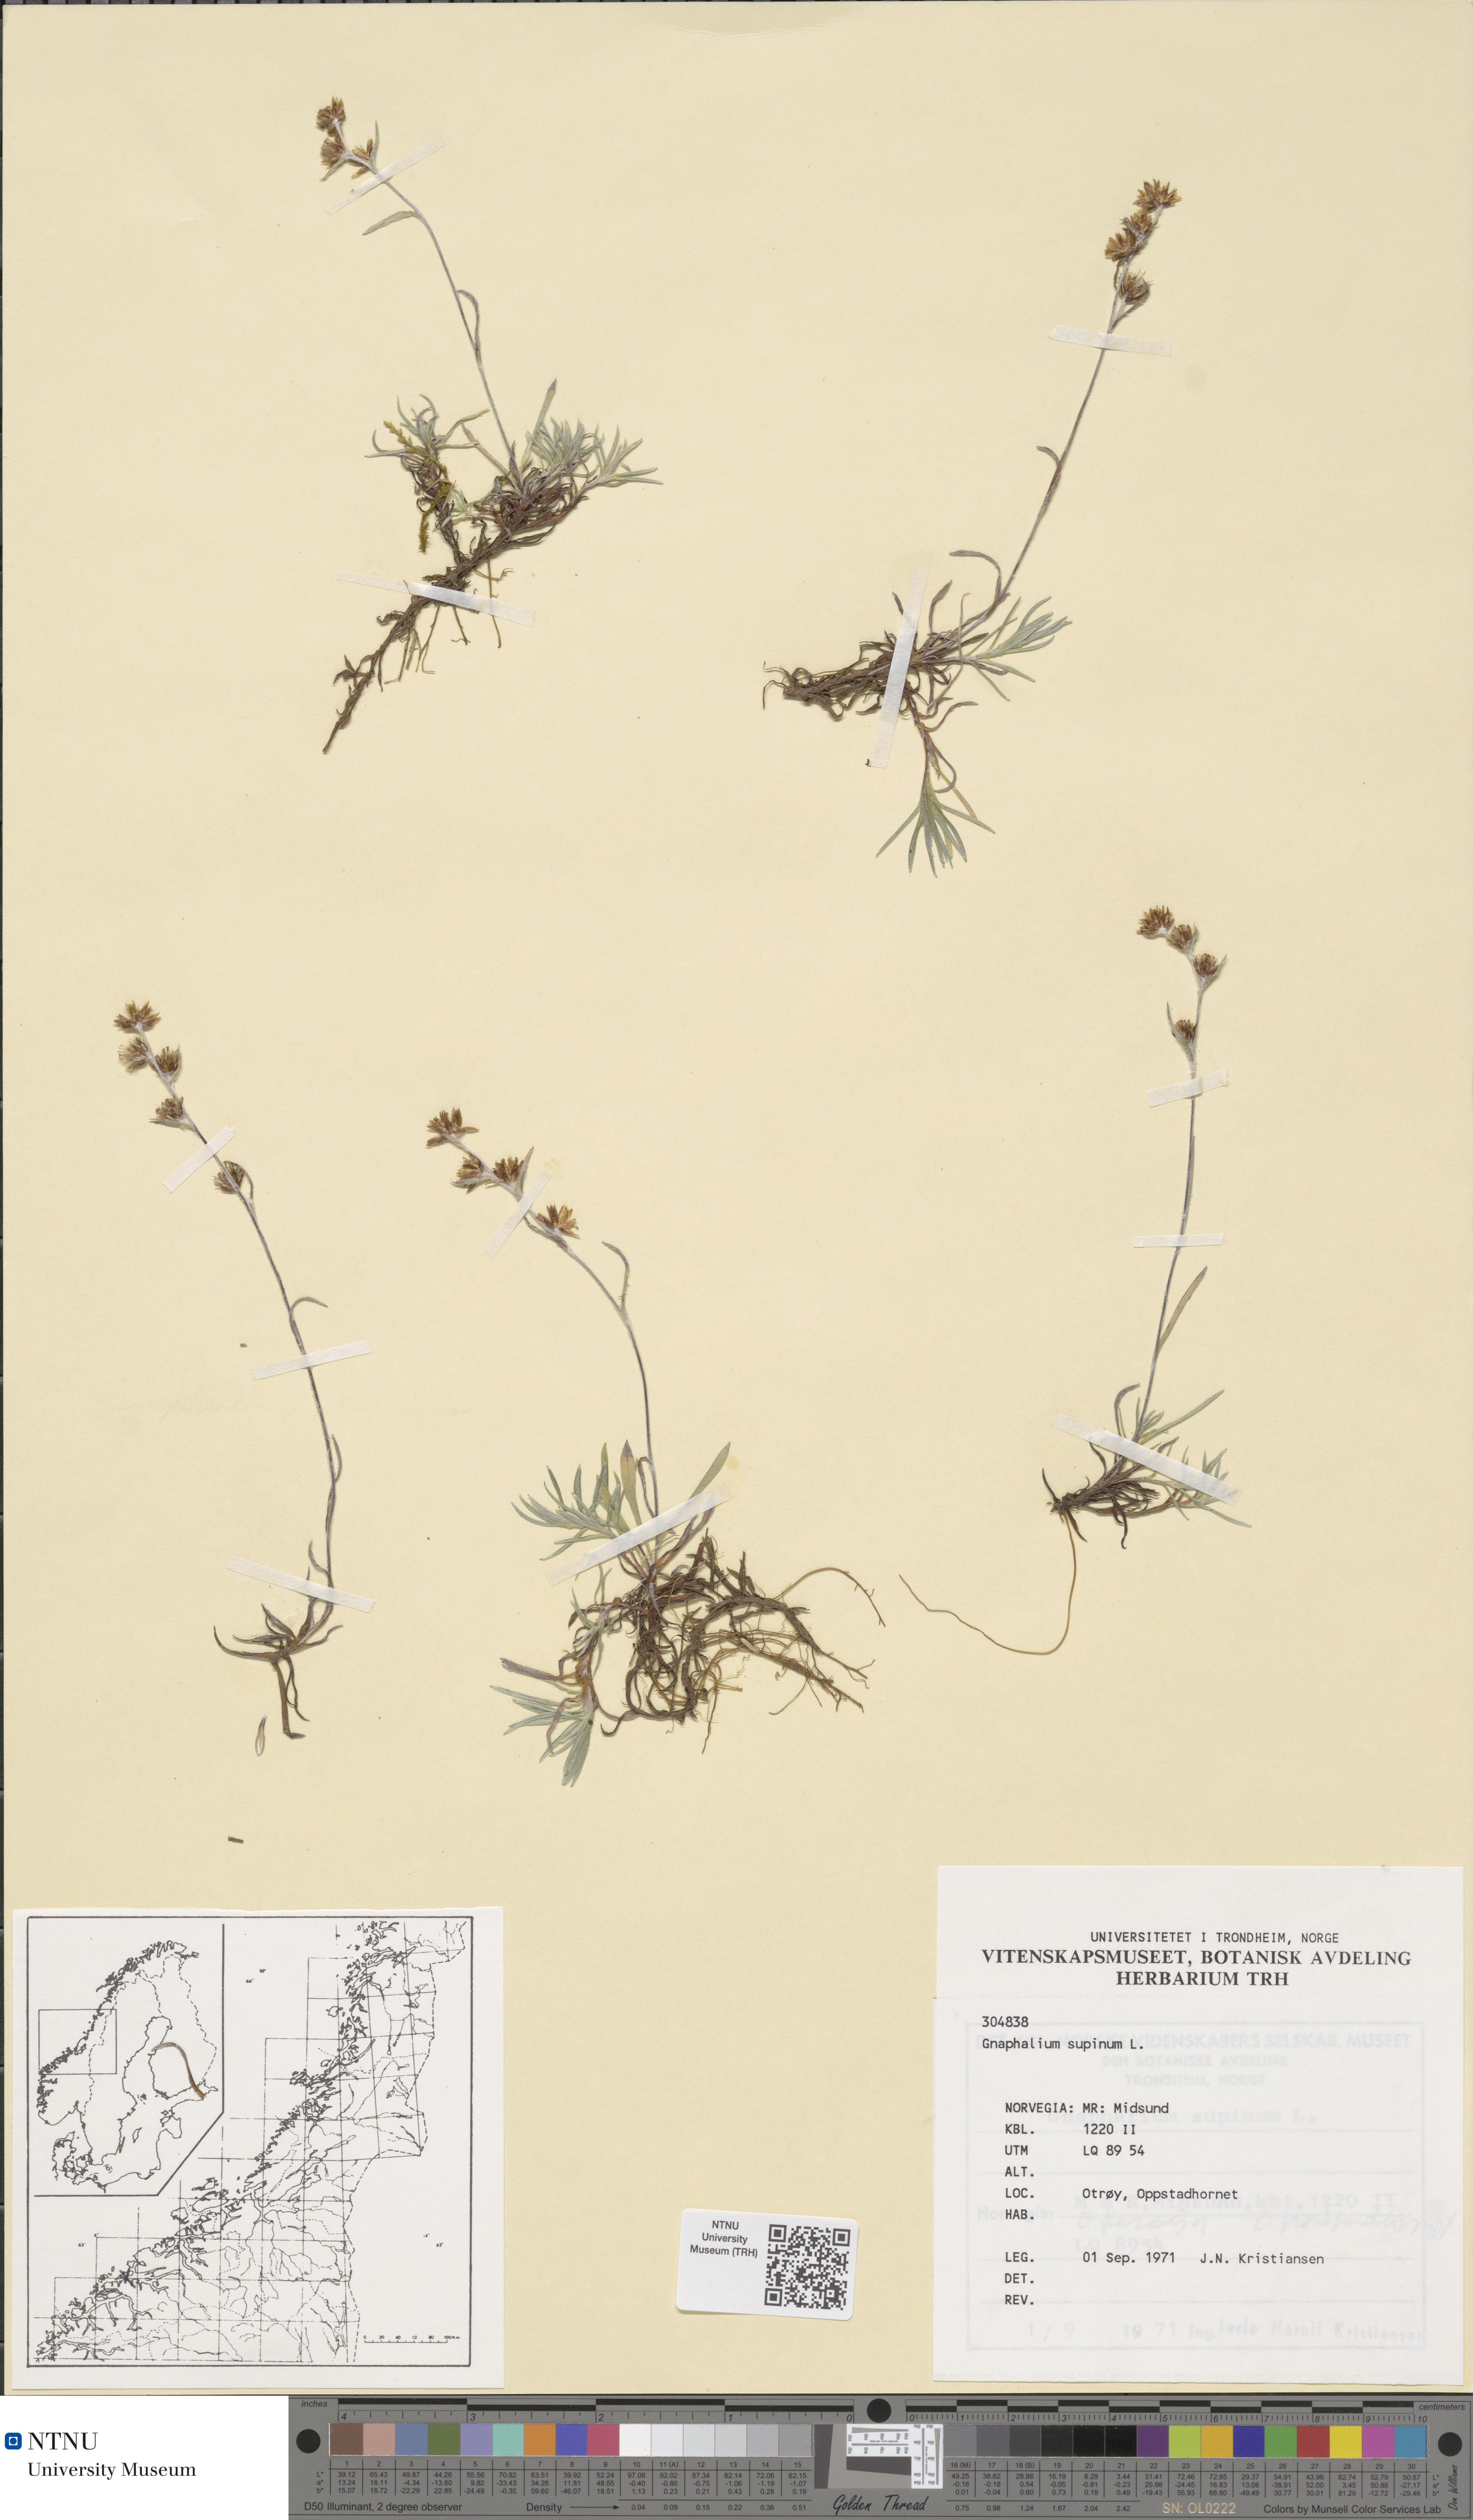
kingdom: Plantae
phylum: Tracheophyta
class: Magnoliopsida
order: Asterales
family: Asteraceae
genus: Omalotheca
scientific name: Omalotheca supina
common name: Alpine arctic-cudweed
